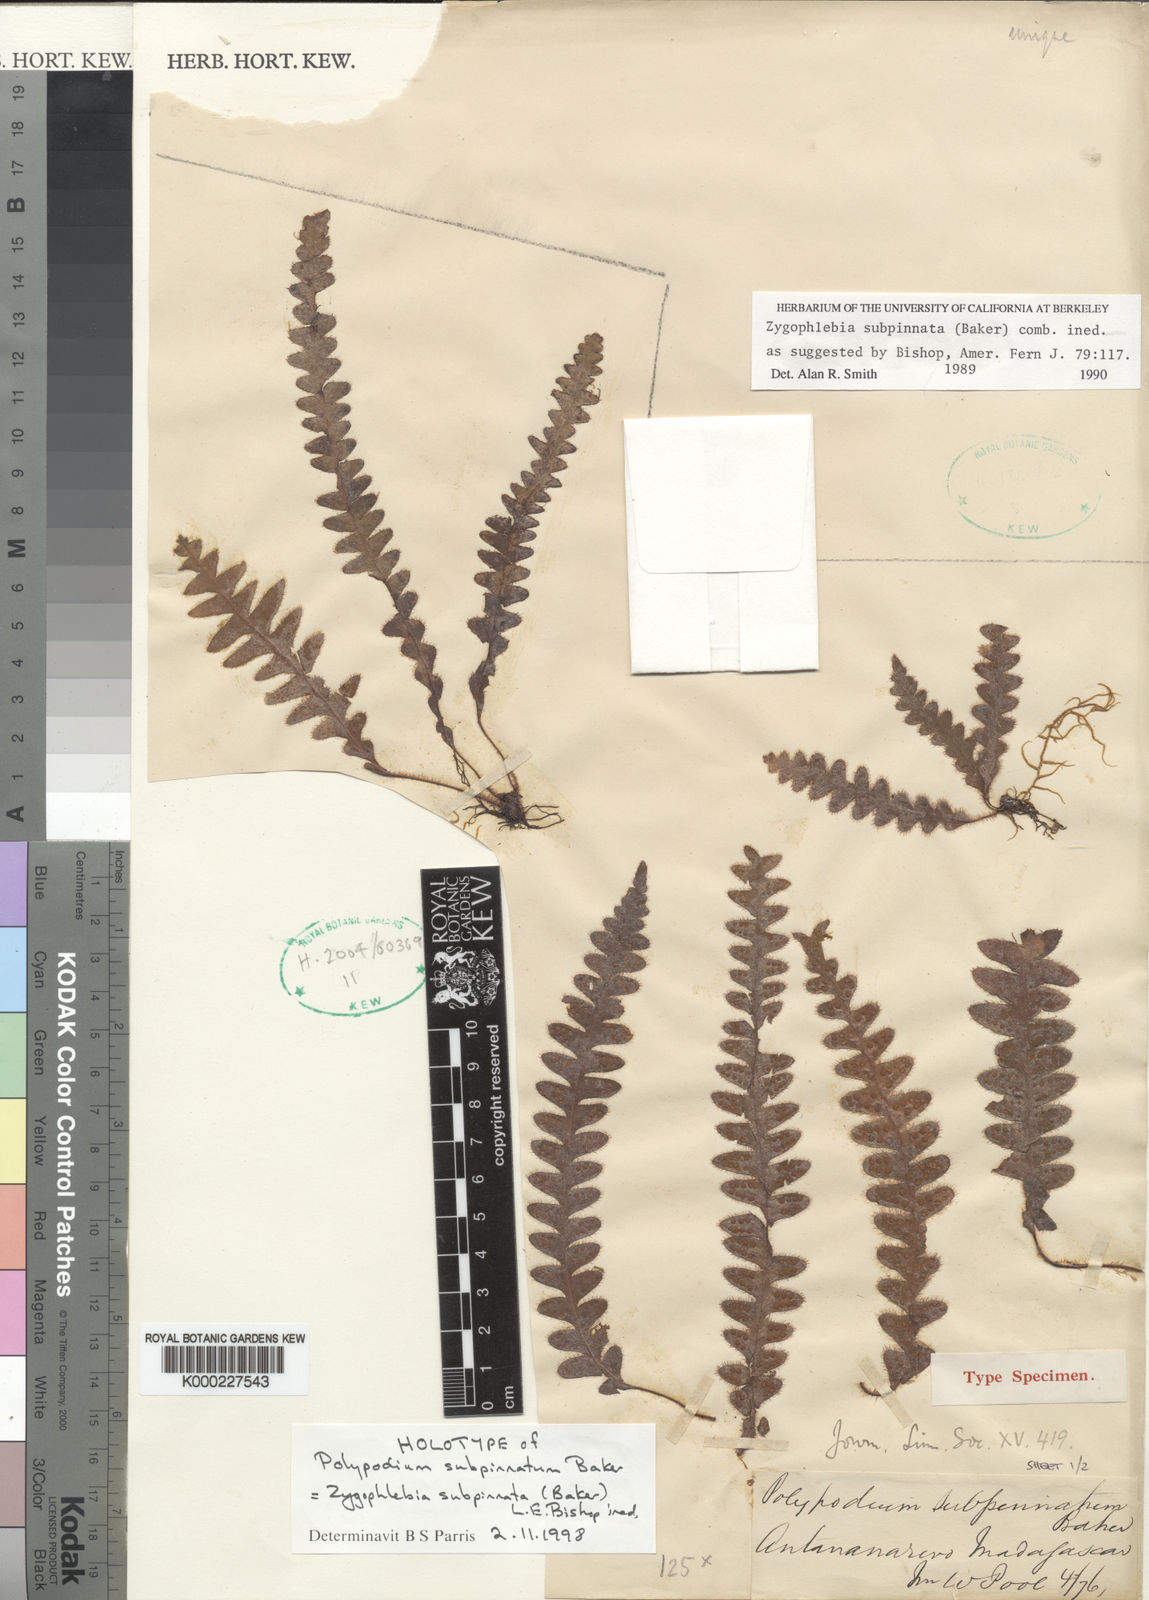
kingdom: Plantae
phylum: Tracheophyta
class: Polypodiopsida
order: Polypodiales
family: Polypodiaceae
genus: Enterosora
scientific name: Enterosora subpinnata
